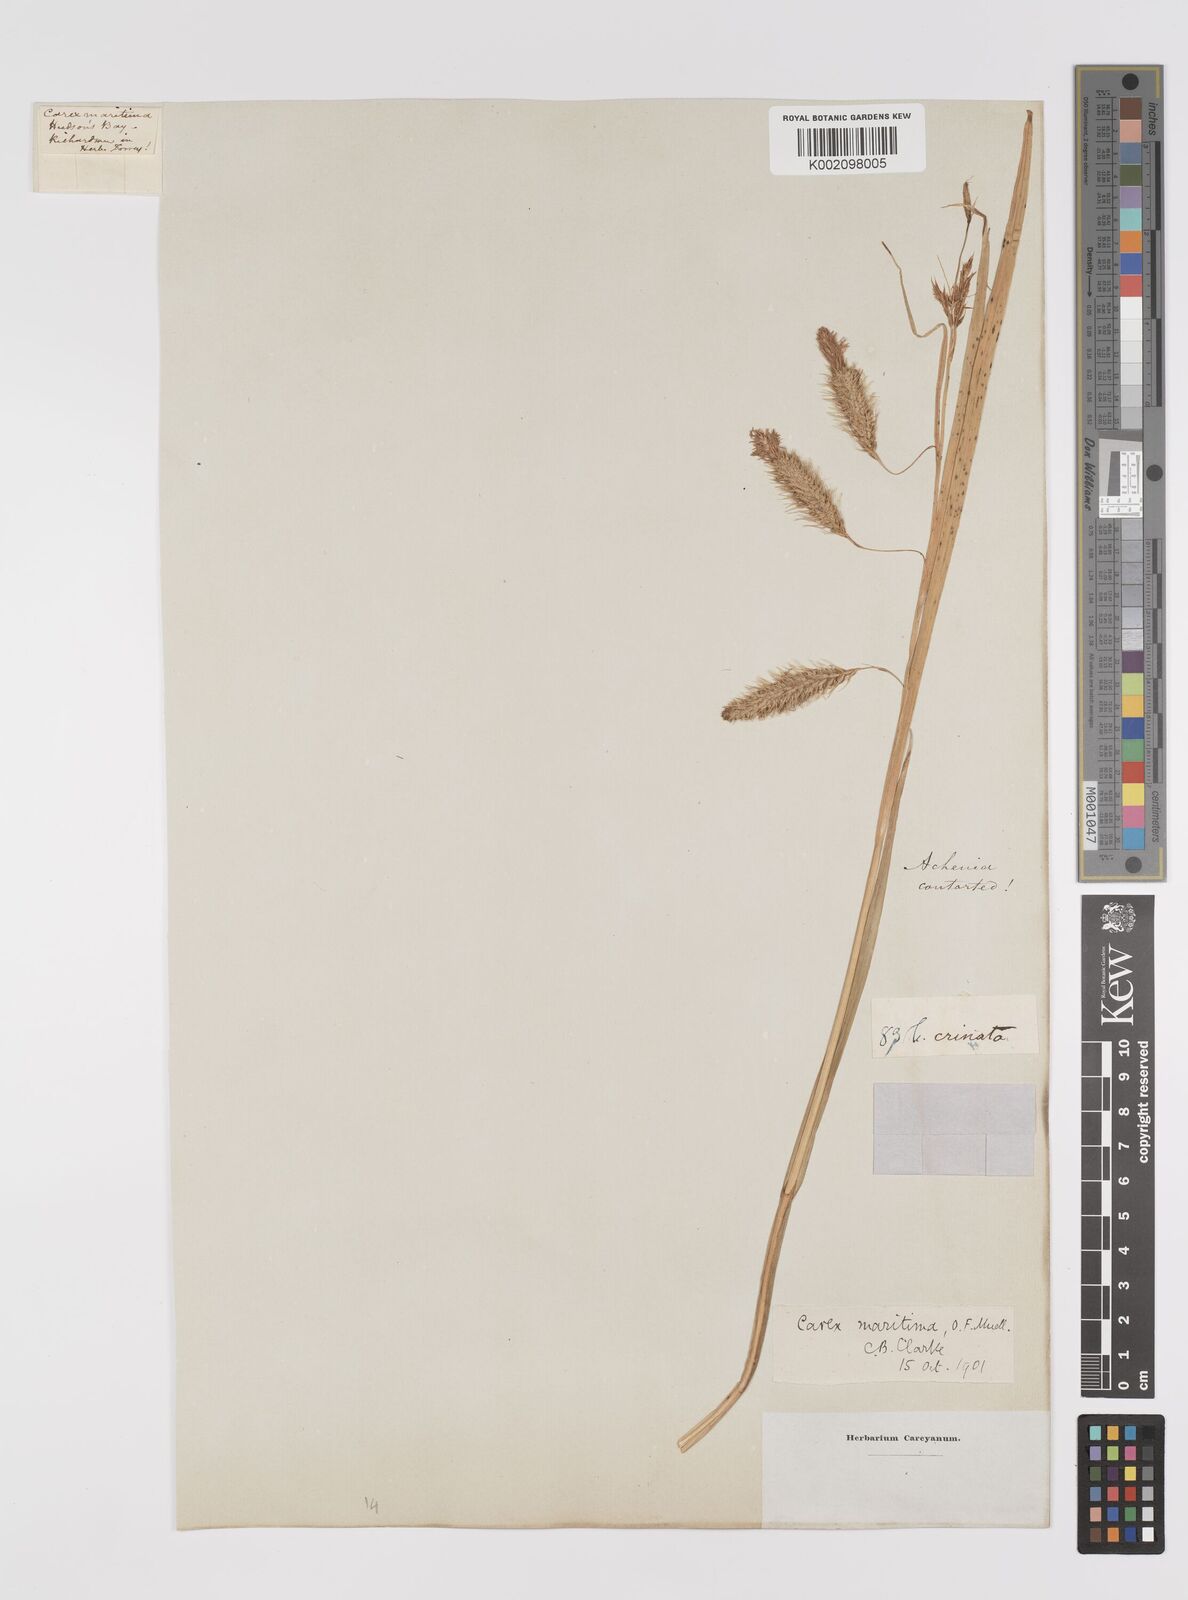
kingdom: Plantae
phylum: Tracheophyta
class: Liliopsida
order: Poales
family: Cyperaceae
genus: Carex
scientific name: Carex maritima
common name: Curved sedge
